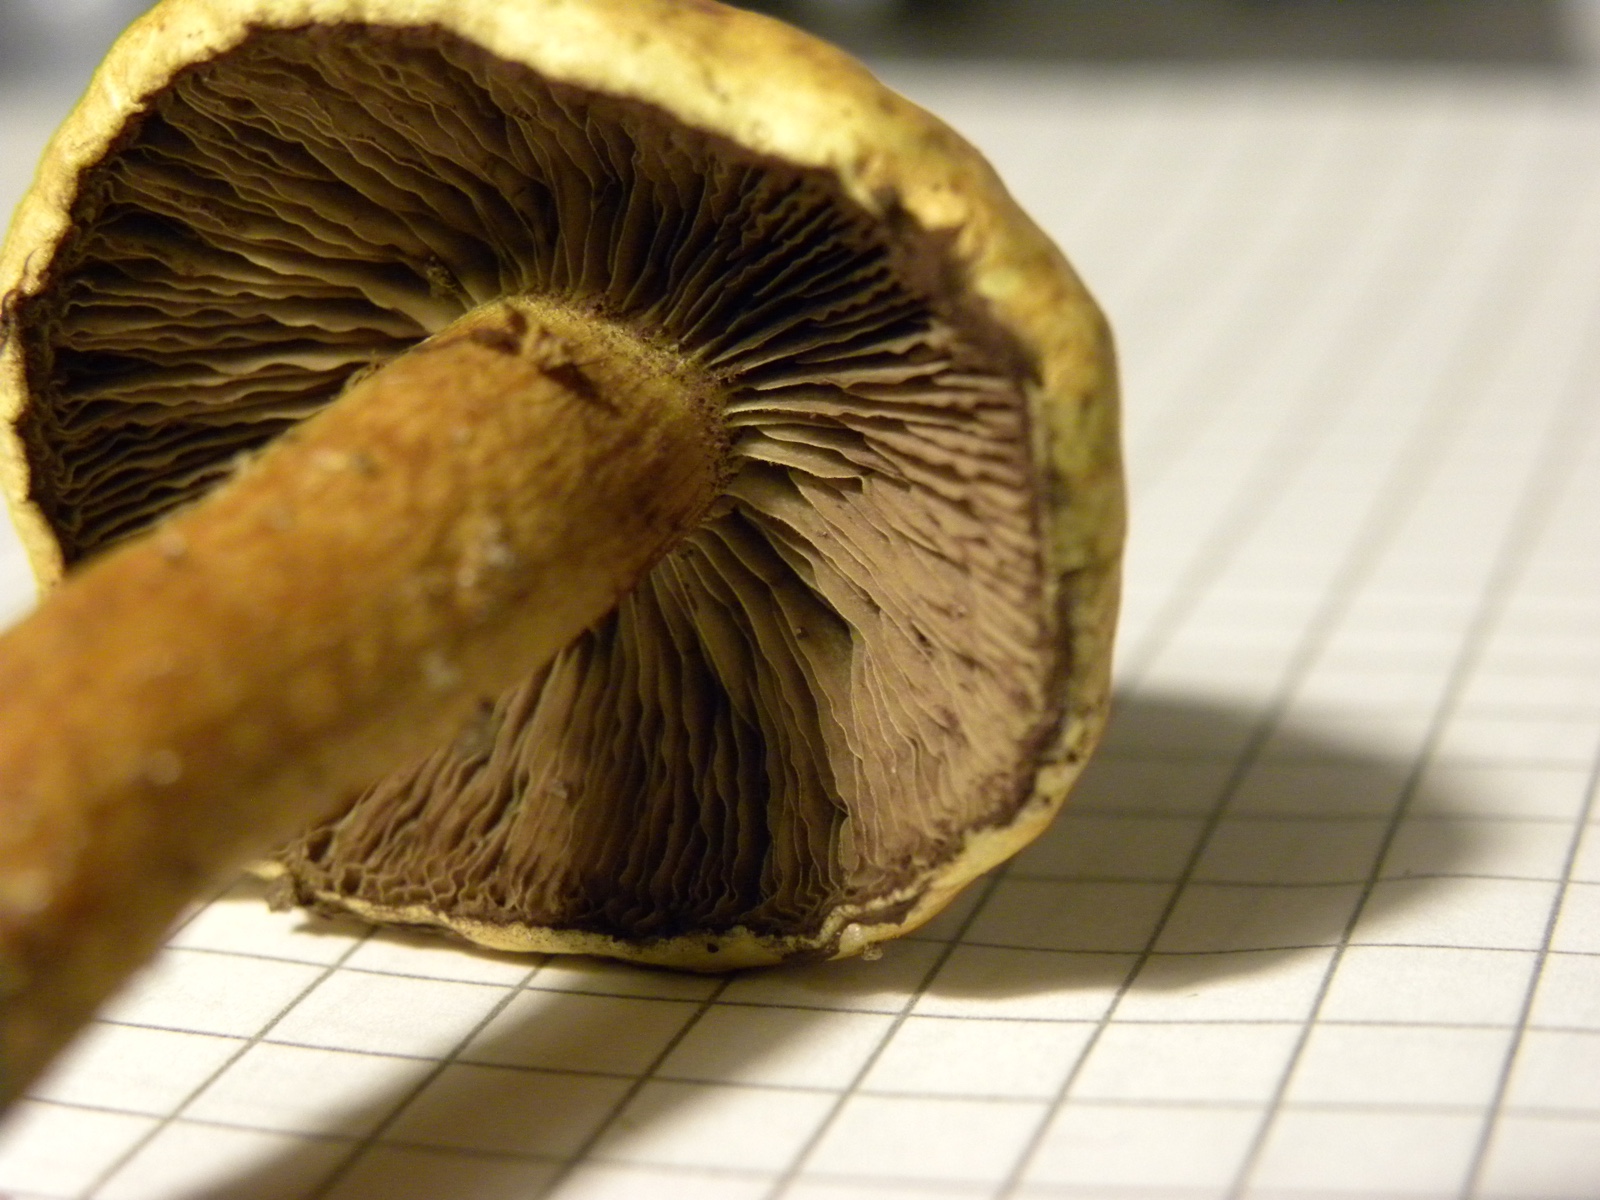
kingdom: Fungi
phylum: Basidiomycota
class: Agaricomycetes
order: Agaricales
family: Strophariaceae
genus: Hypholoma
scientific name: Hypholoma fasciculare
